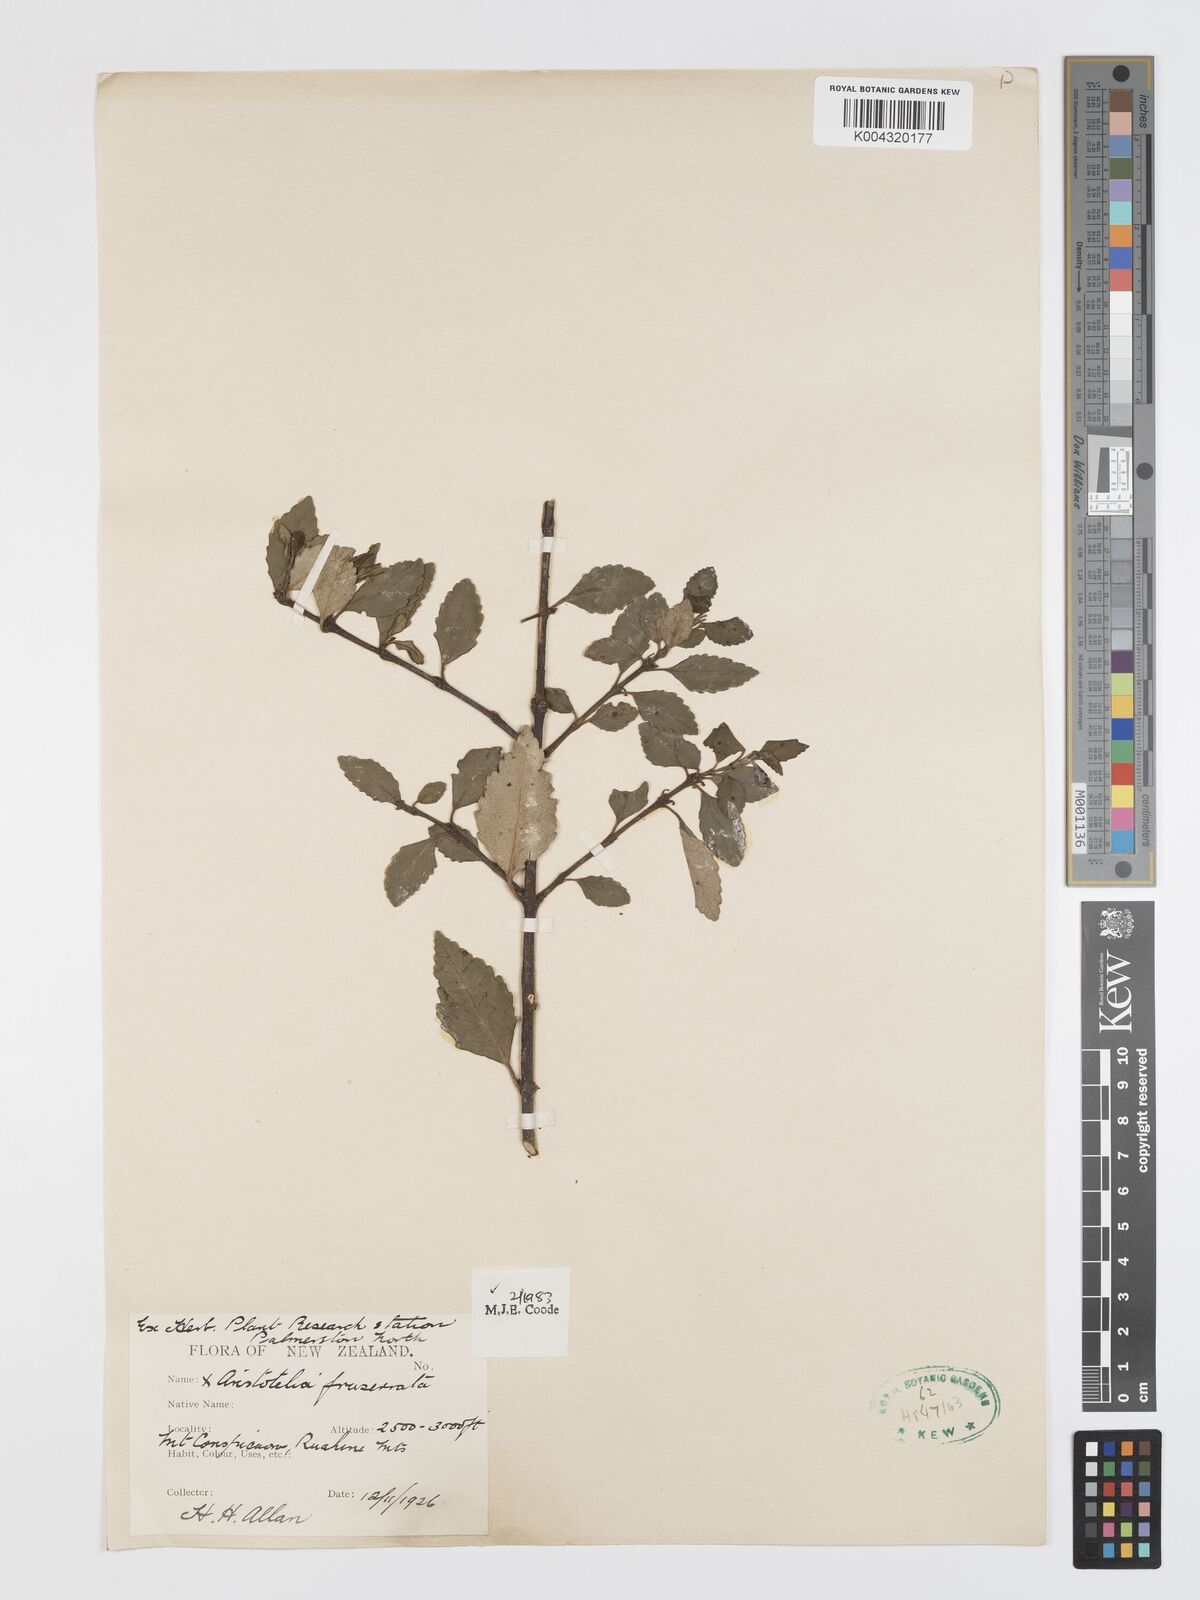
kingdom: Plantae
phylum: Tracheophyta
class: Magnoliopsida
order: Oxalidales
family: Elaeocarpaceae
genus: Aristotelia
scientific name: Aristotelia fruticosa
